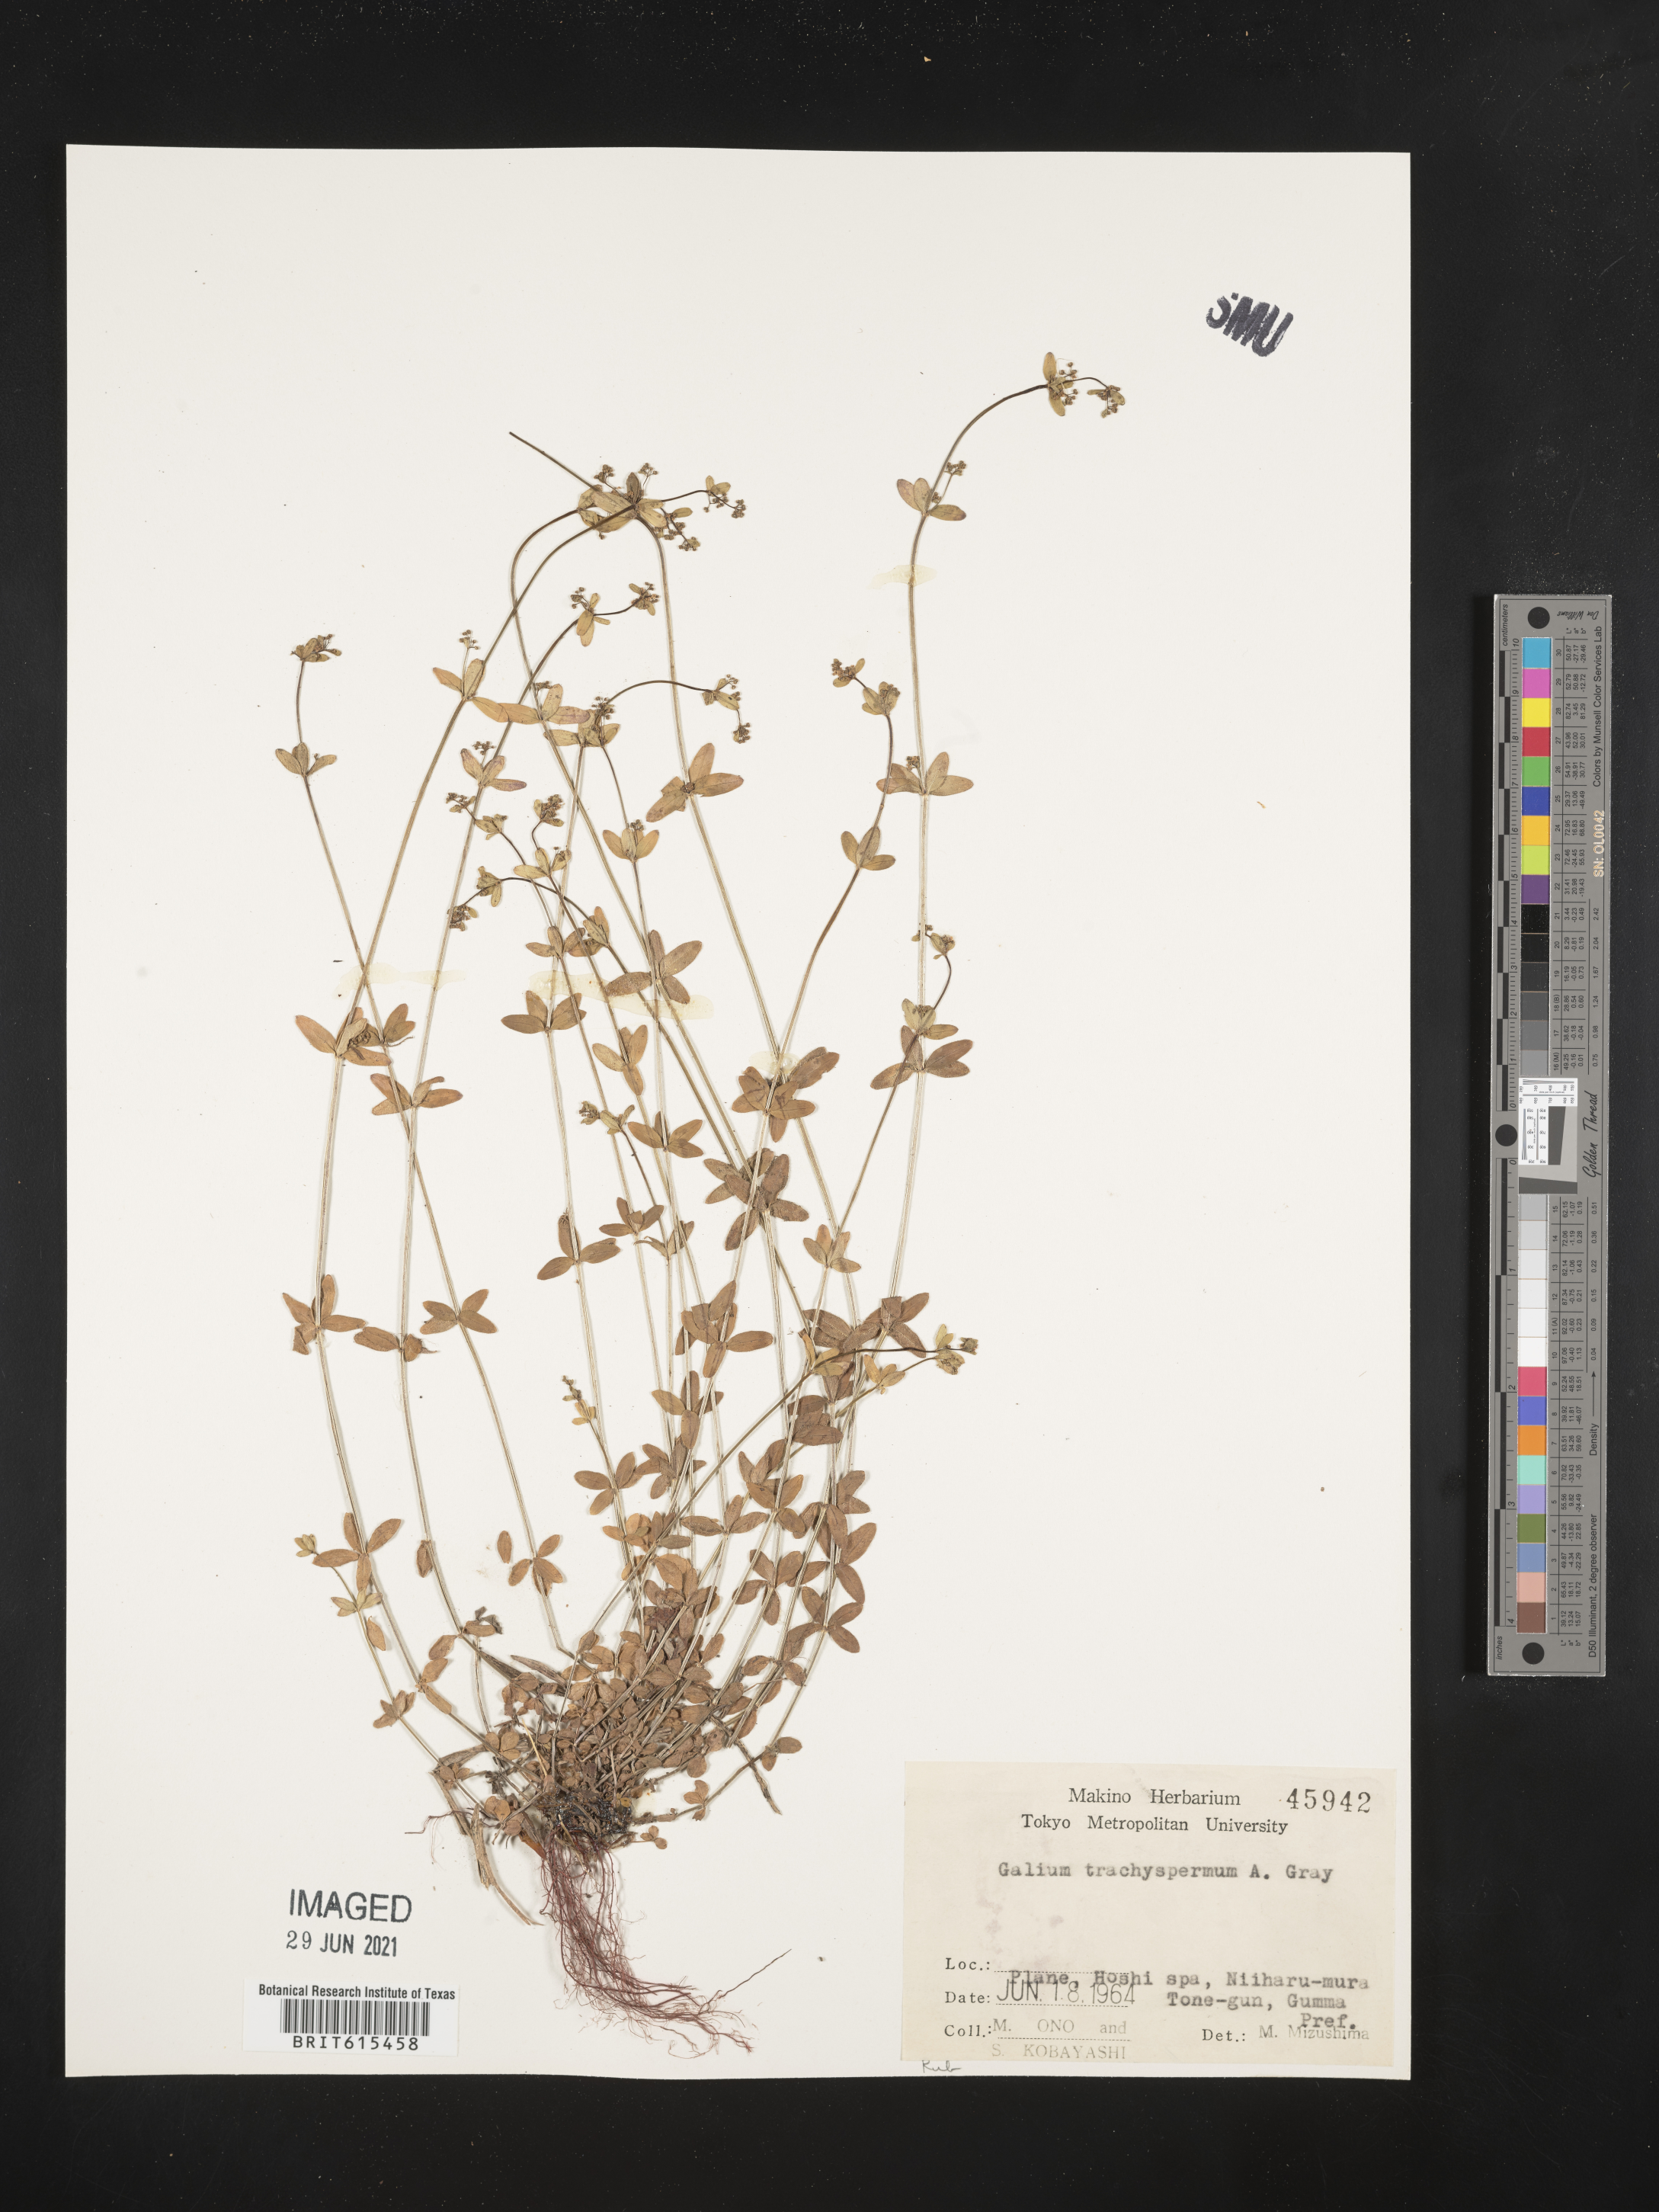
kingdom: Plantae
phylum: Tracheophyta
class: Magnoliopsida
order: Gentianales
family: Rubiaceae
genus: Galium
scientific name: Galium bungei
